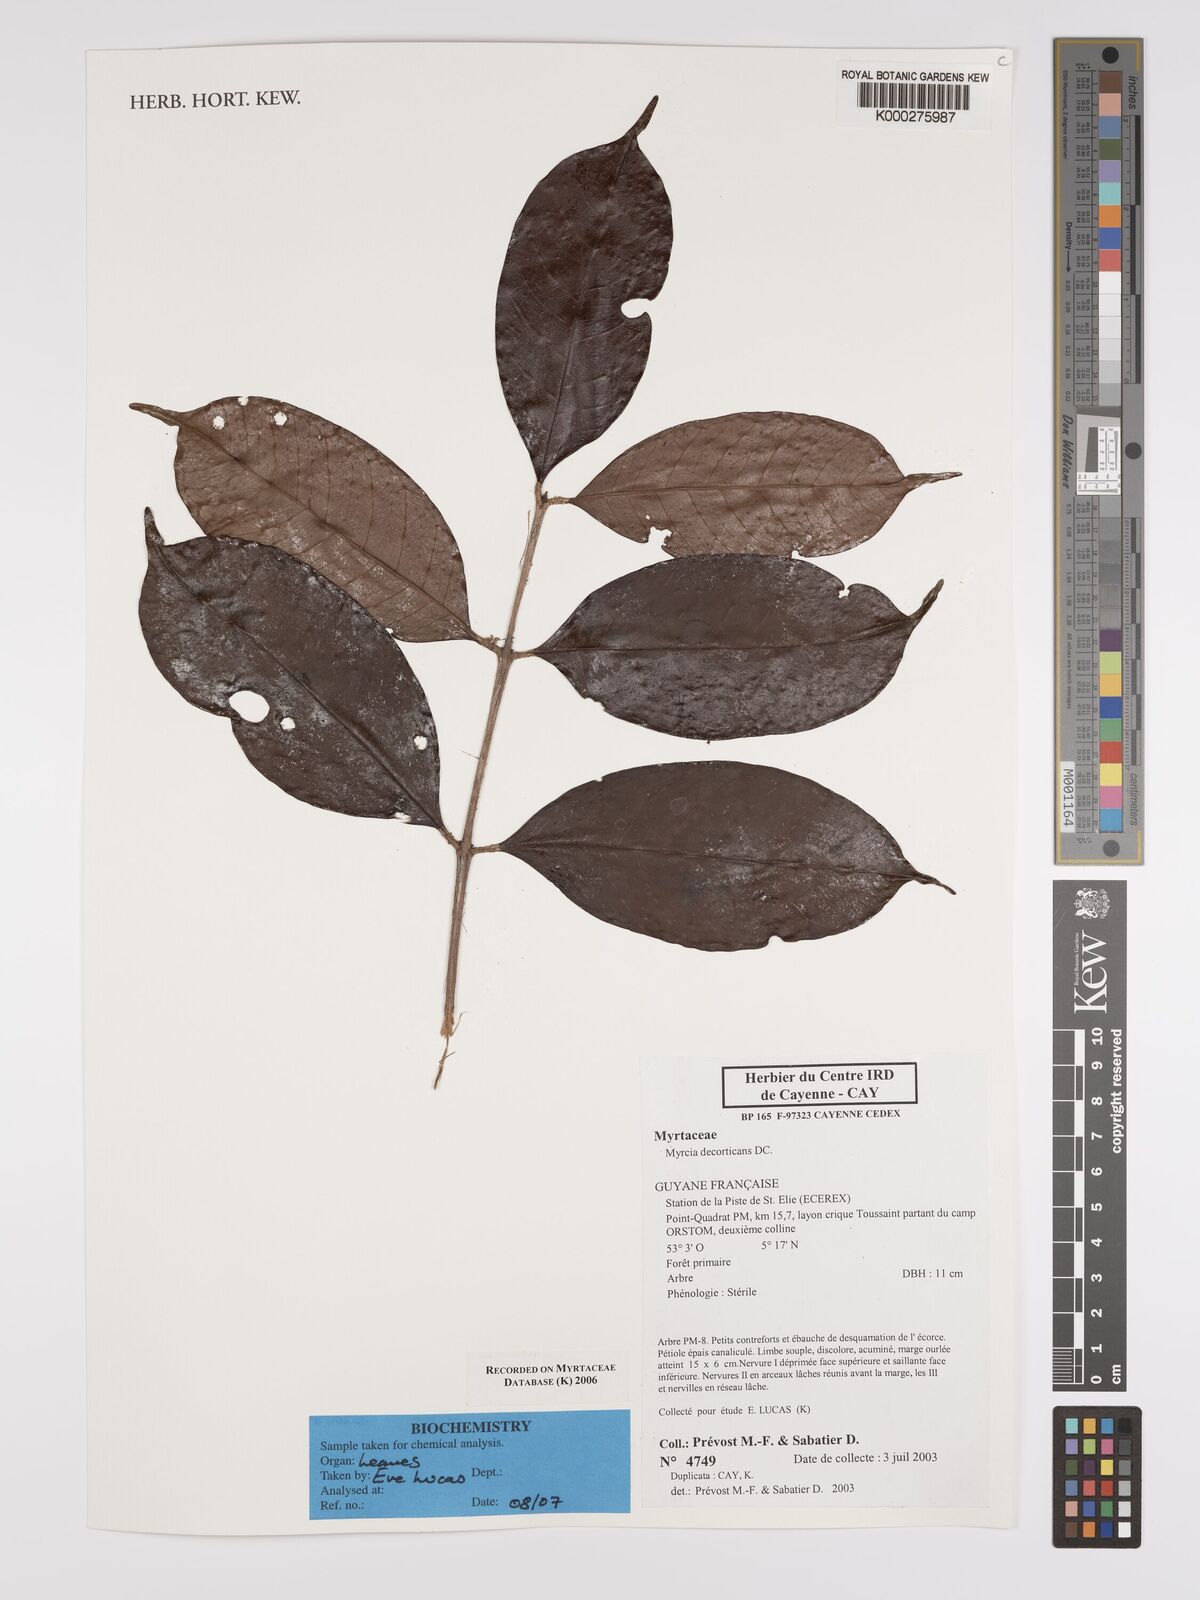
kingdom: Plantae
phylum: Tracheophyta
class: Magnoliopsida
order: Myrtales
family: Myrtaceae
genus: Myrcia
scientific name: Myrcia decorticans
